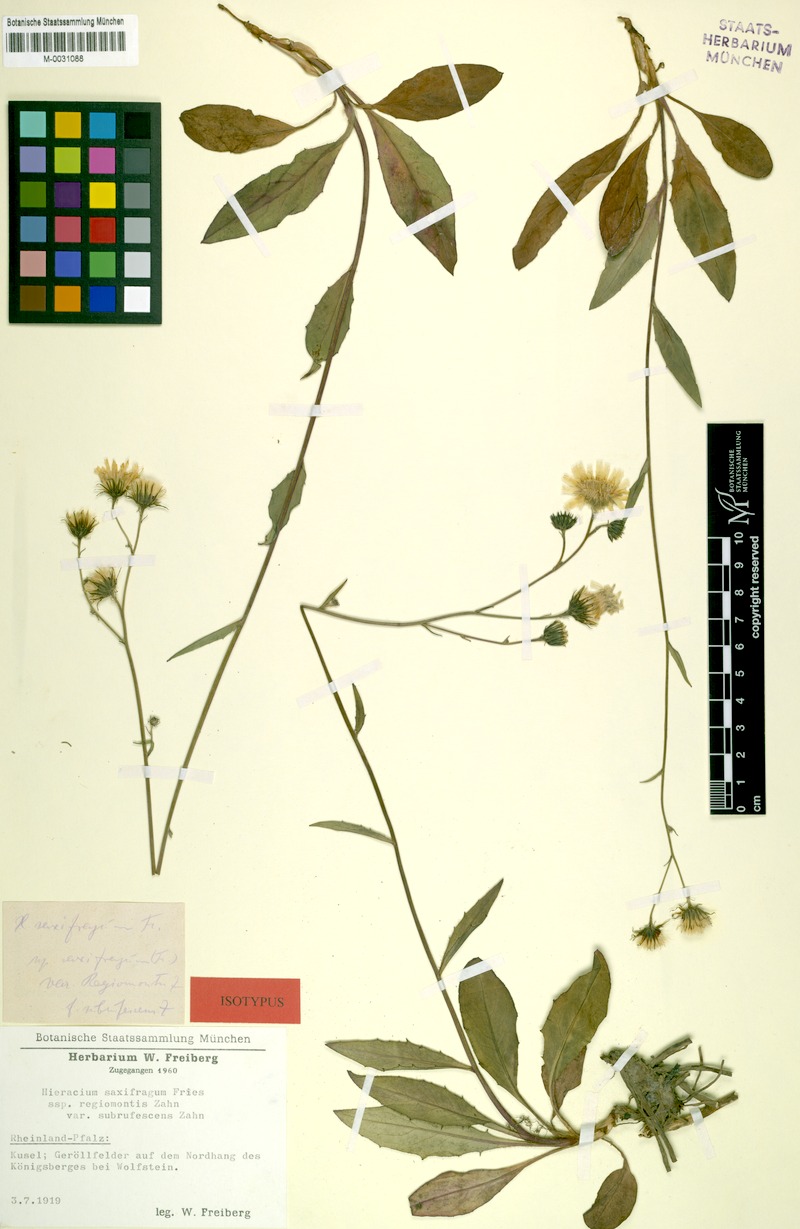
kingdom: Plantae
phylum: Tracheophyta
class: Magnoliopsida
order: Asterales
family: Asteraceae
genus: Hieracium
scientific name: Hieracium saxifragum
